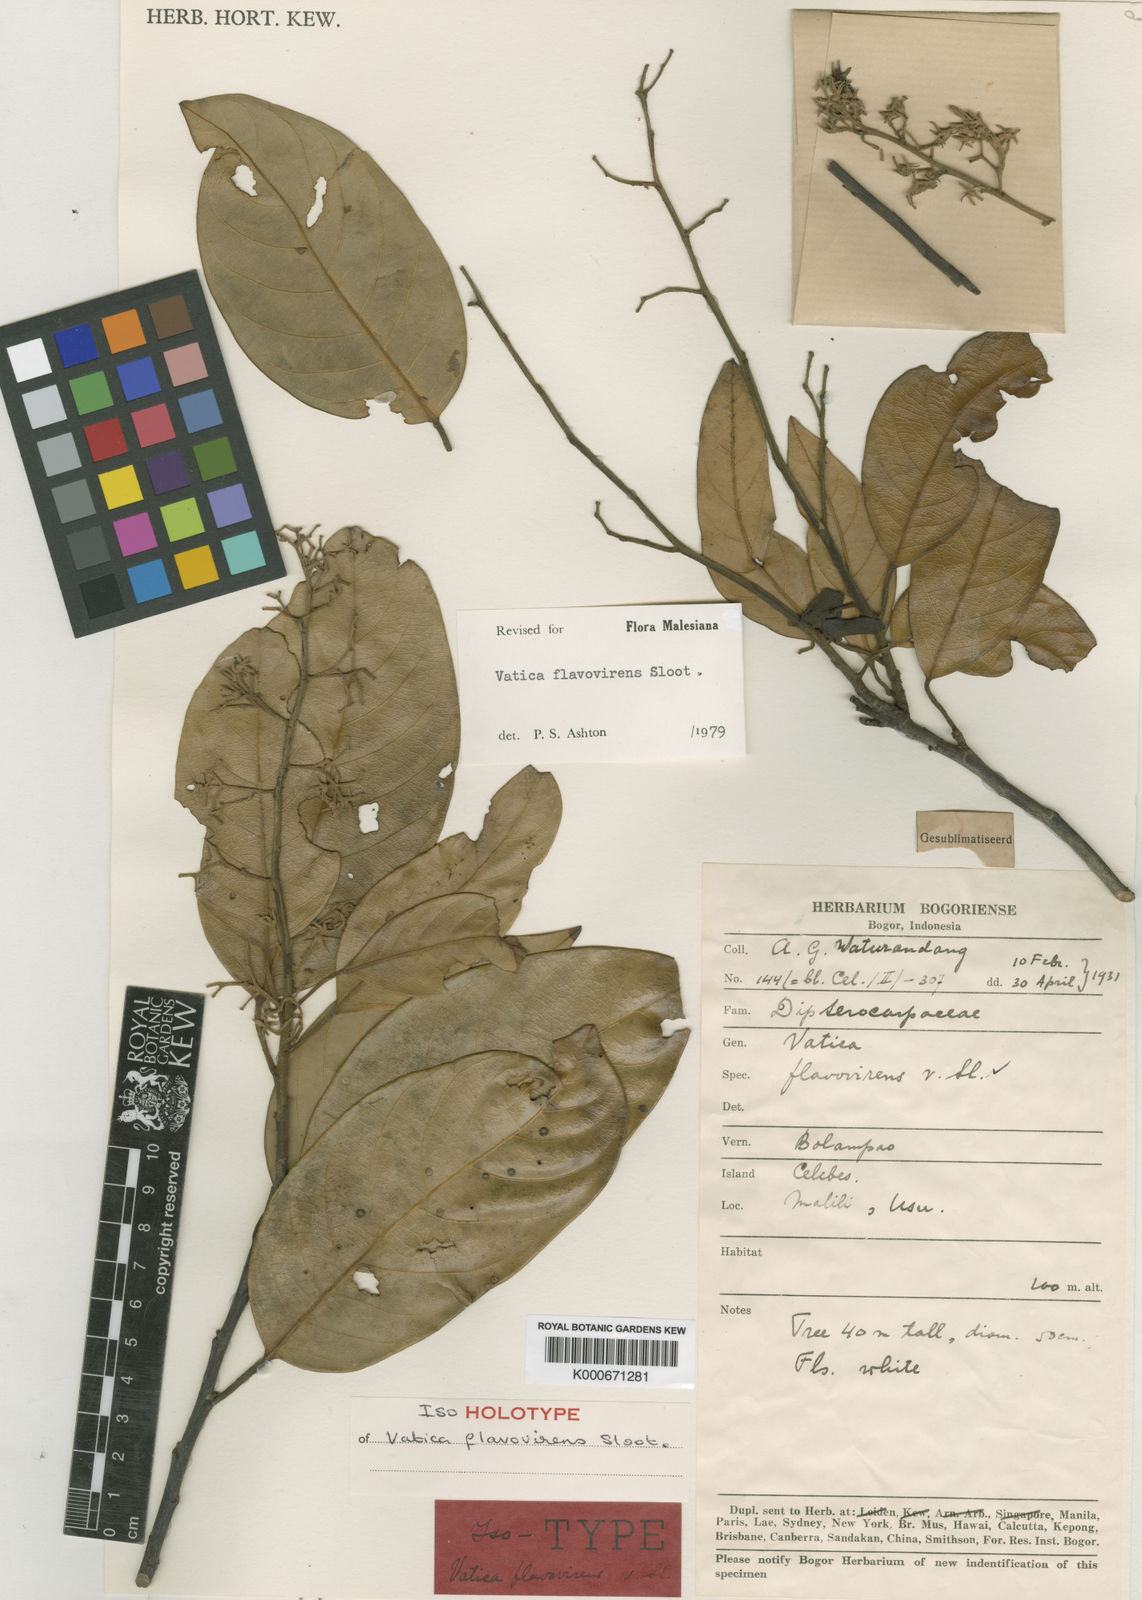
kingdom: Plantae
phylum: Tracheophyta
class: Magnoliopsida
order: Malvales
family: Dipterocarpaceae
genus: Vatica
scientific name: Vatica flavovirens
